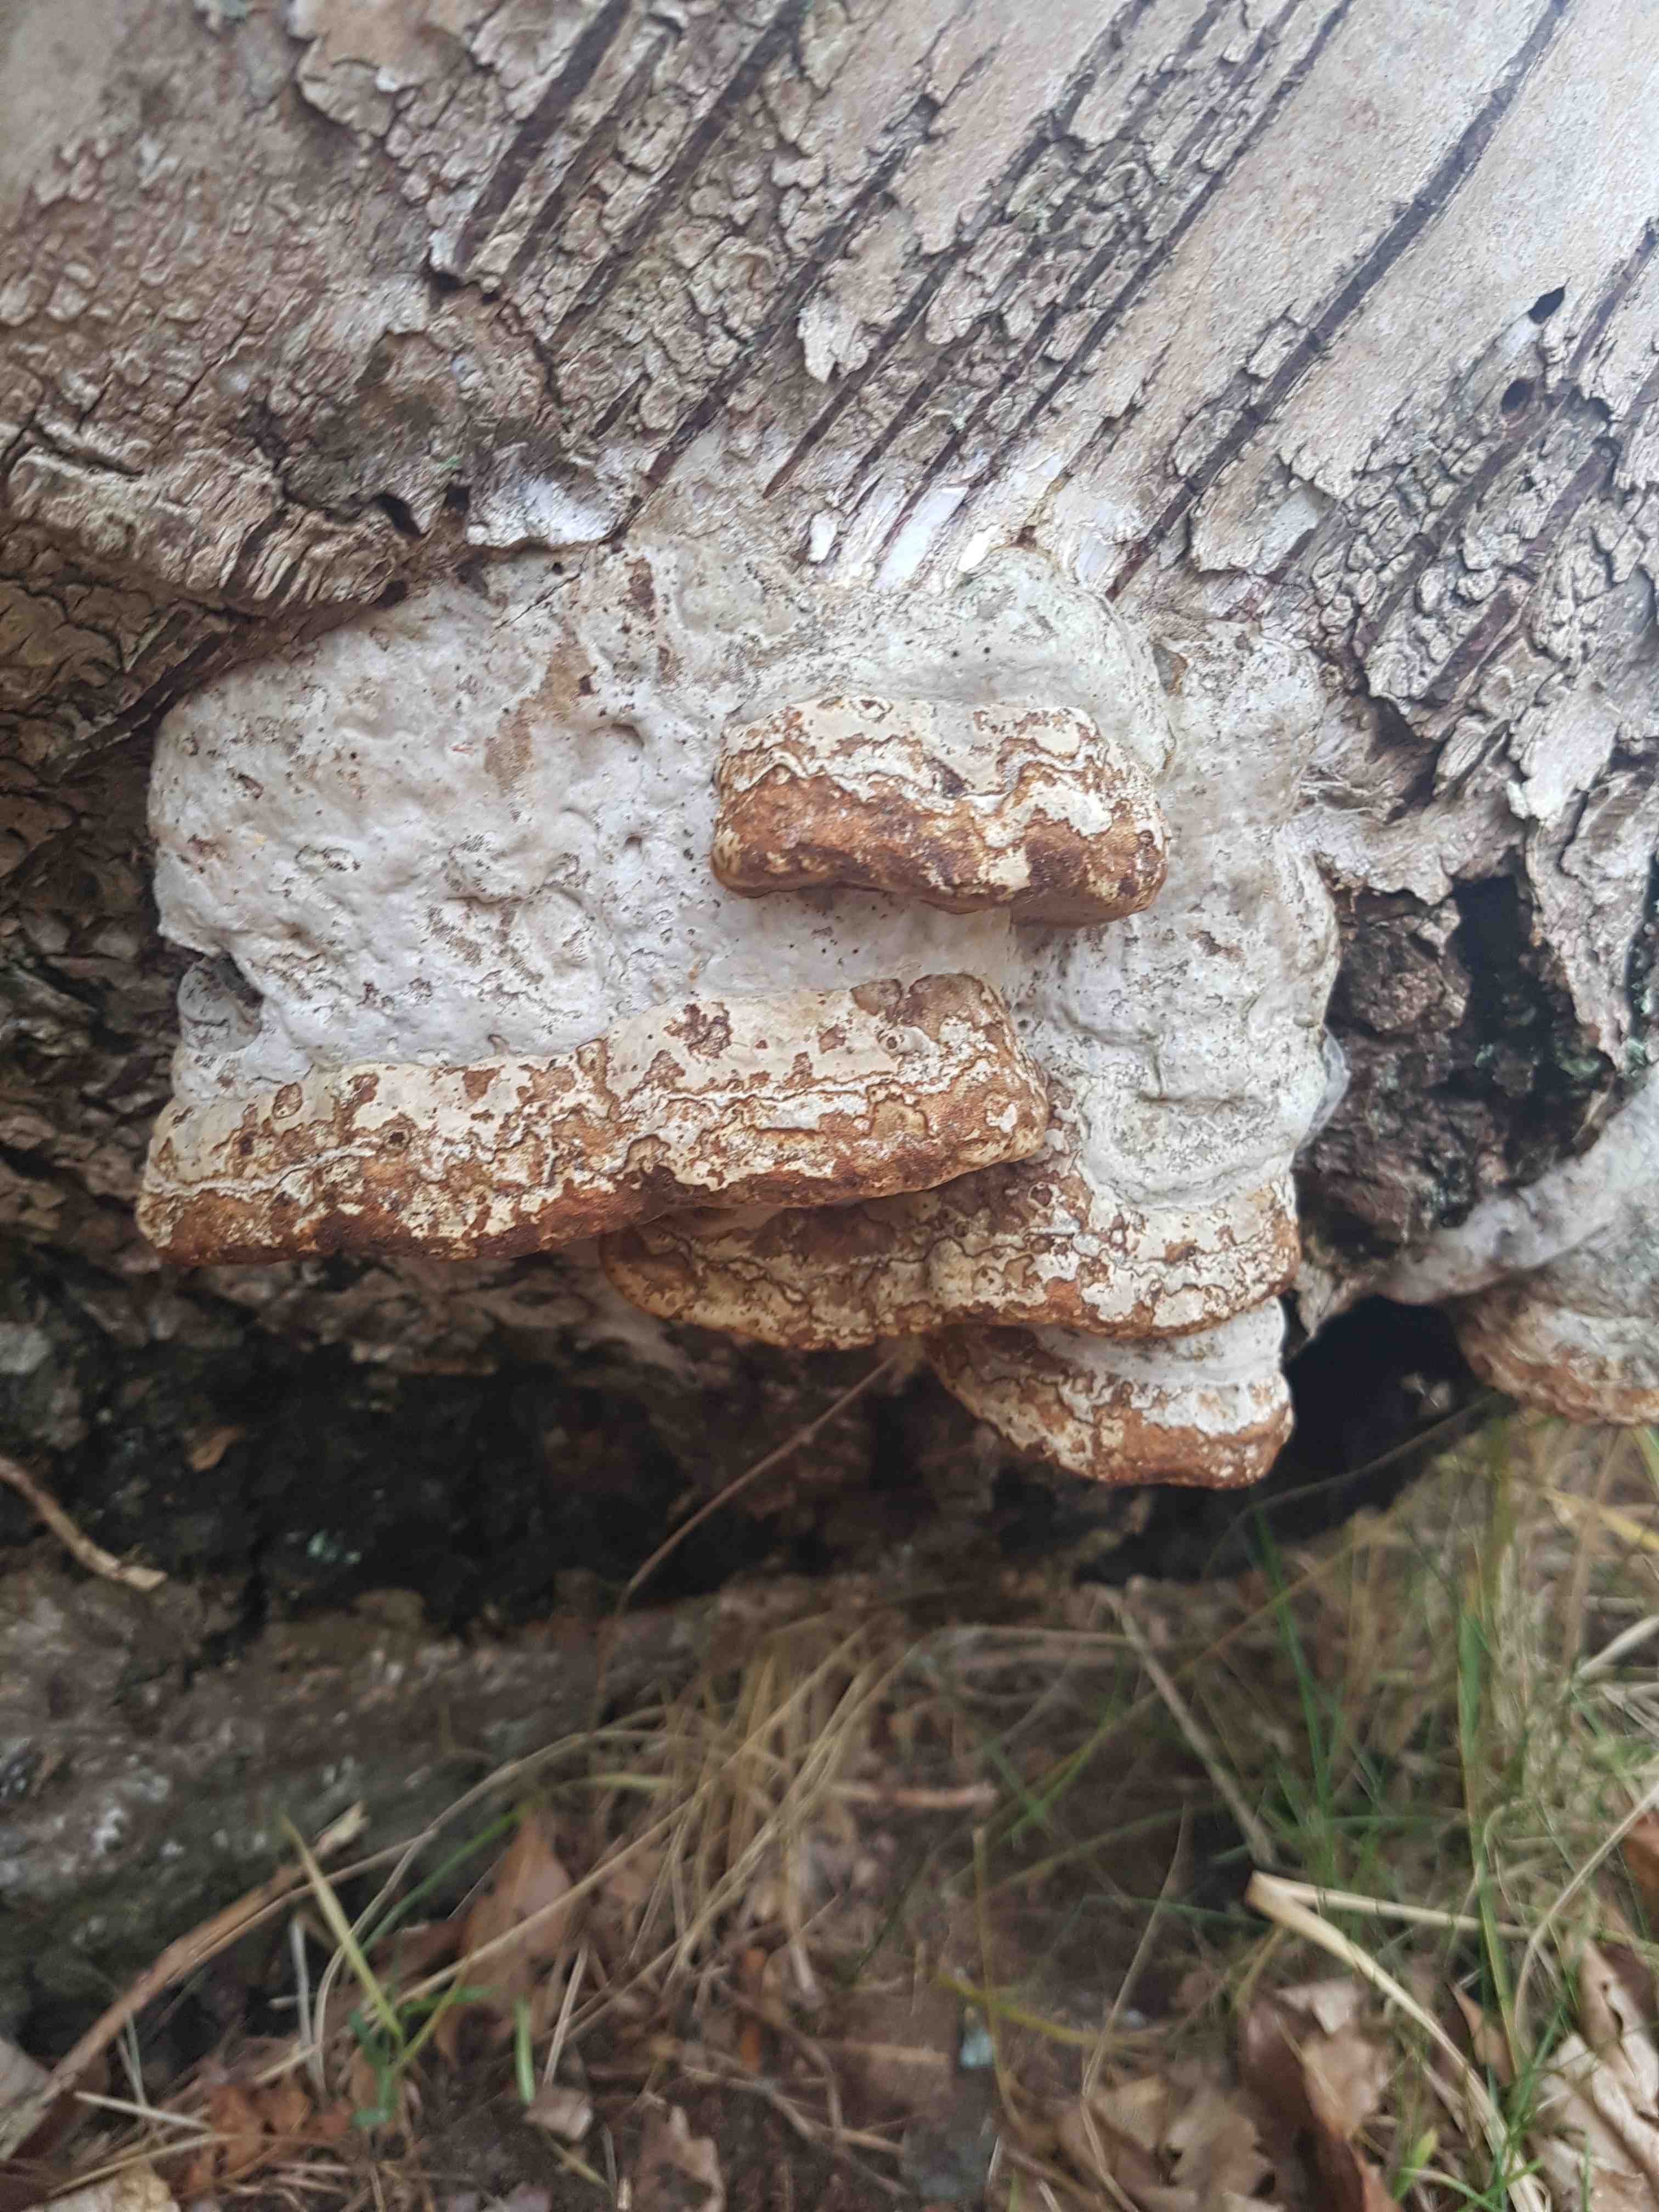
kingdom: Fungi
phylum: Basidiomycota
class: Agaricomycetes
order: Polyporales
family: Polyporaceae
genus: Fomes
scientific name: Fomes fomentarius
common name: tøndersvamp
